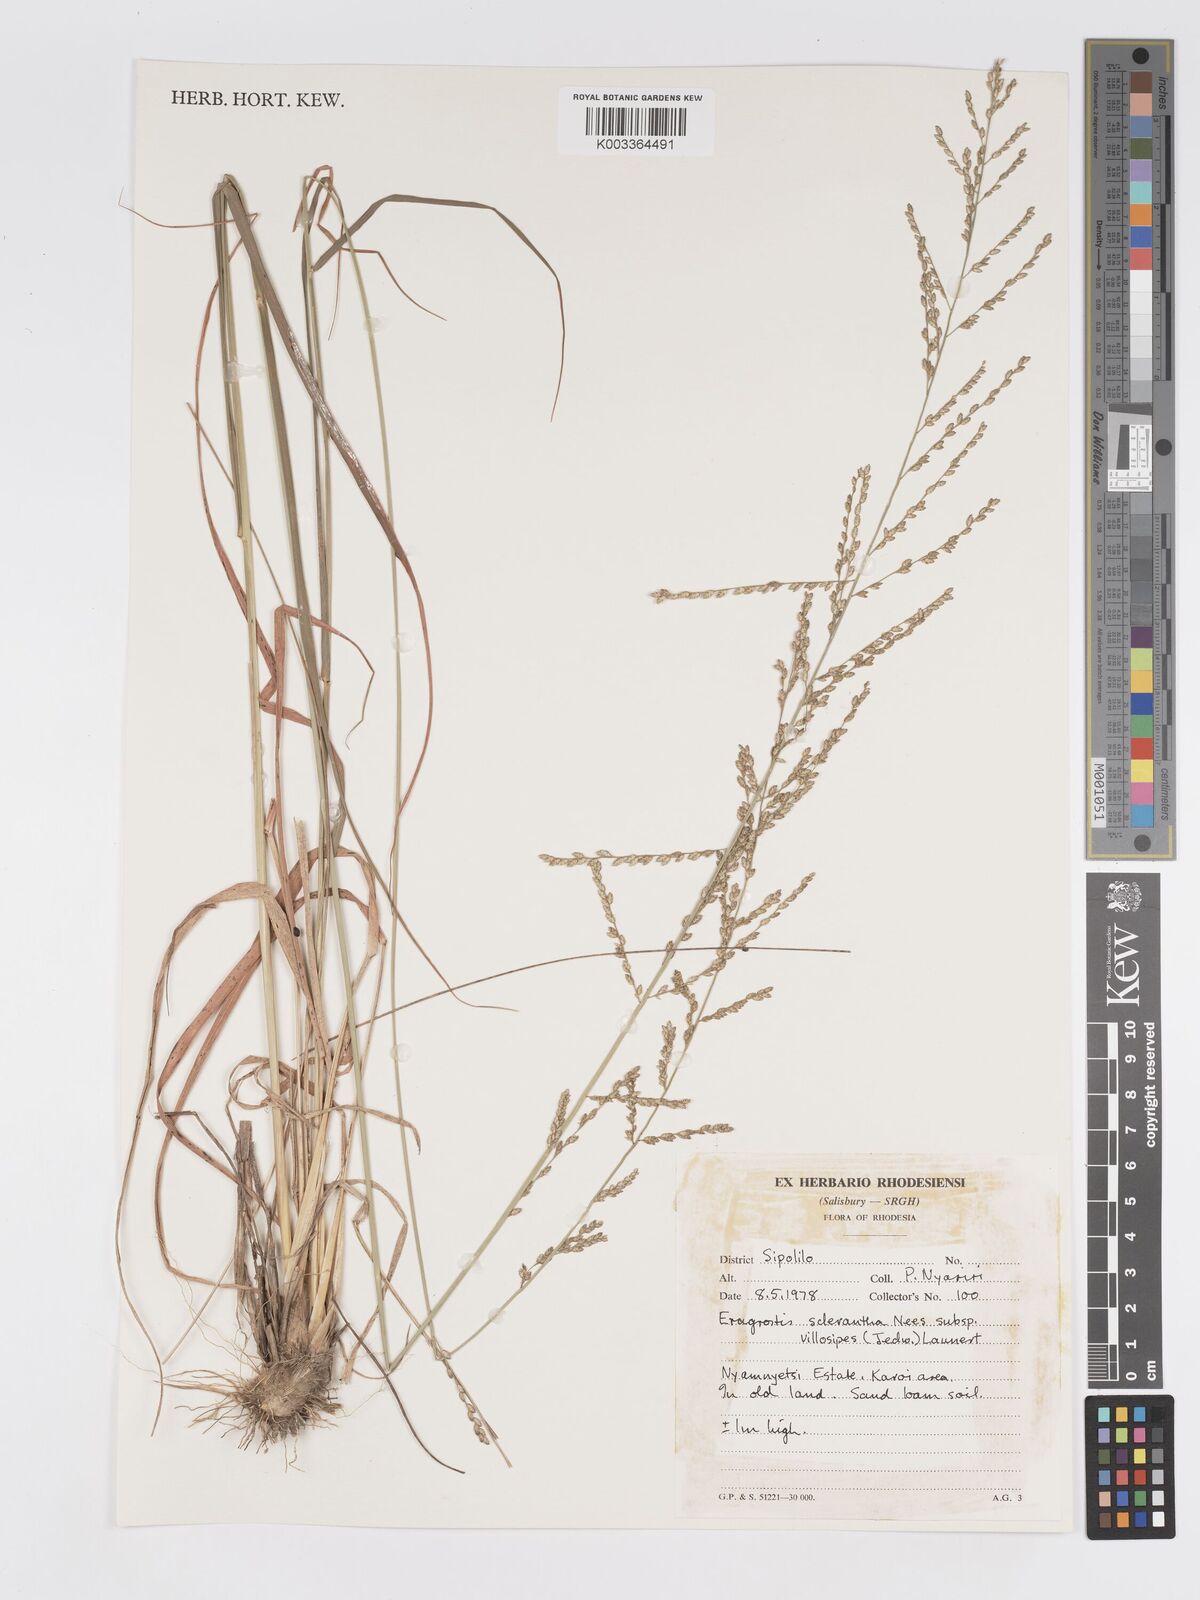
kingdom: Plantae
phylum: Tracheophyta
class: Liliopsida
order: Poales
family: Poaceae
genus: Eragrostis
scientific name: Eragrostis sclerantha
